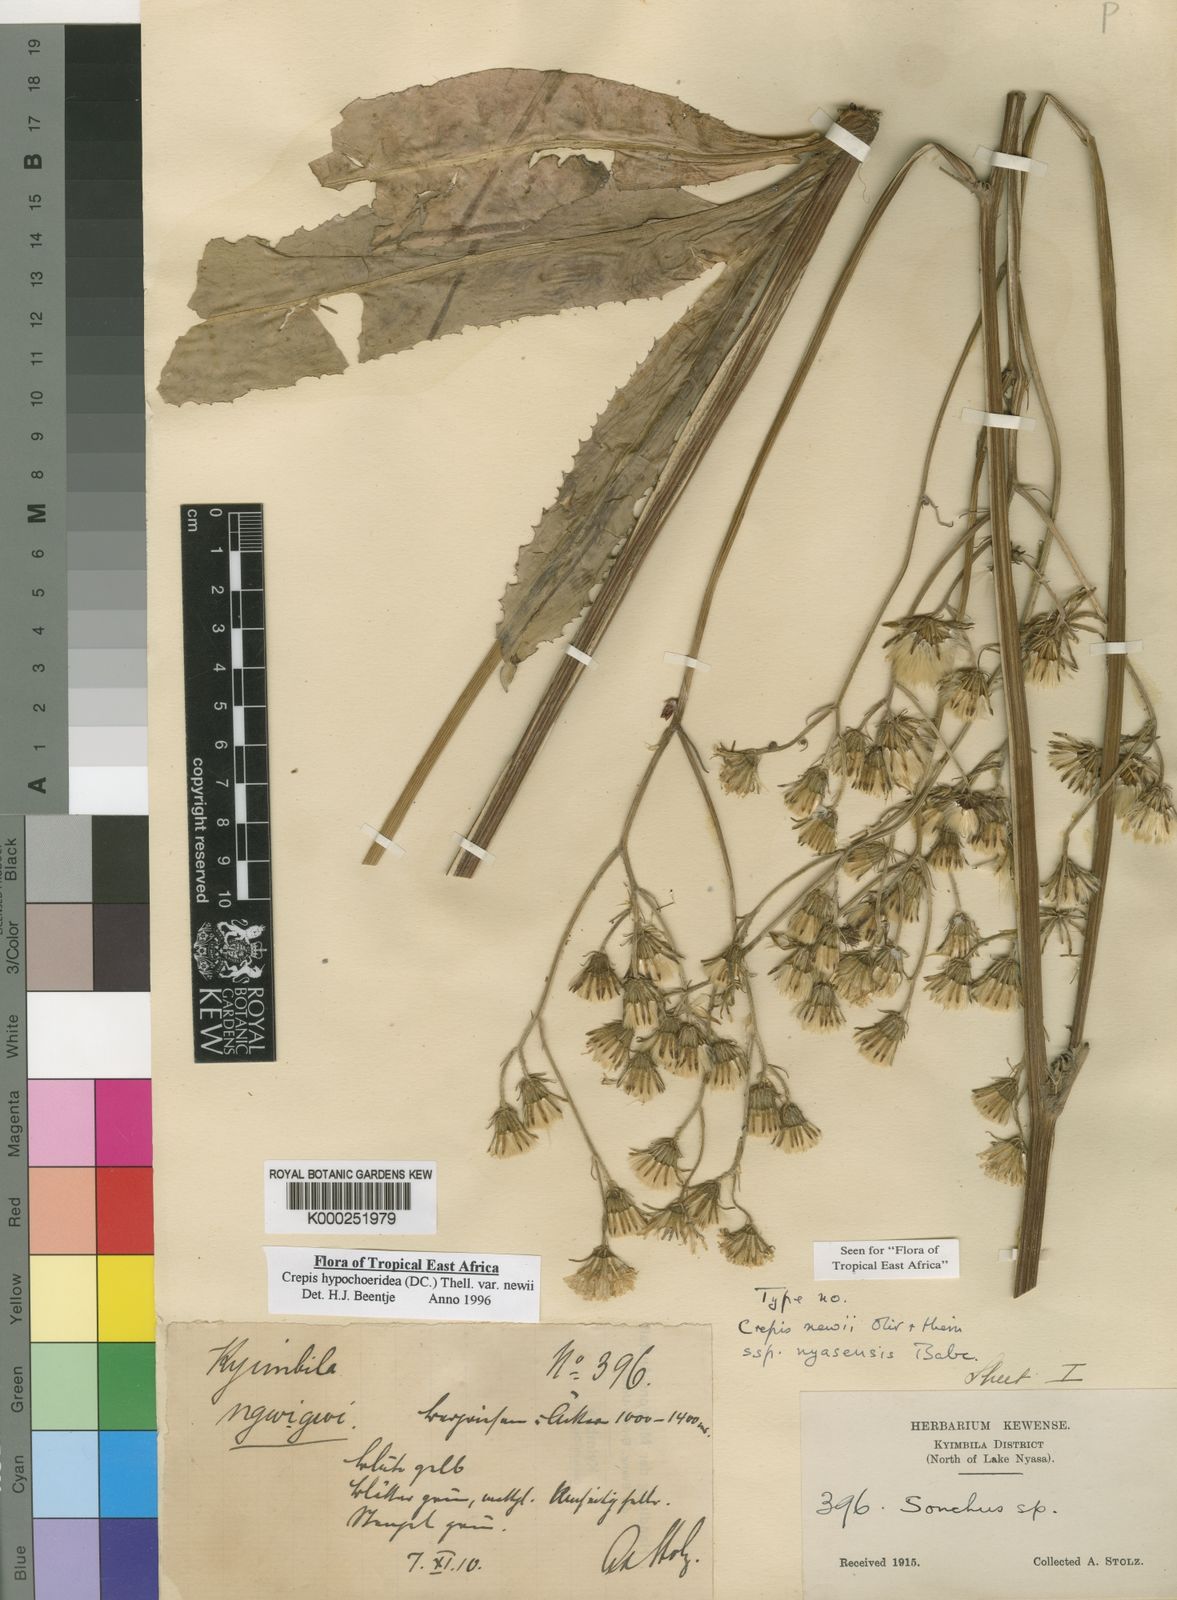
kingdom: Plantae
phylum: Tracheophyta
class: Magnoliopsida
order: Asterales
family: Asteraceae
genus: Crepis
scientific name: Crepis
